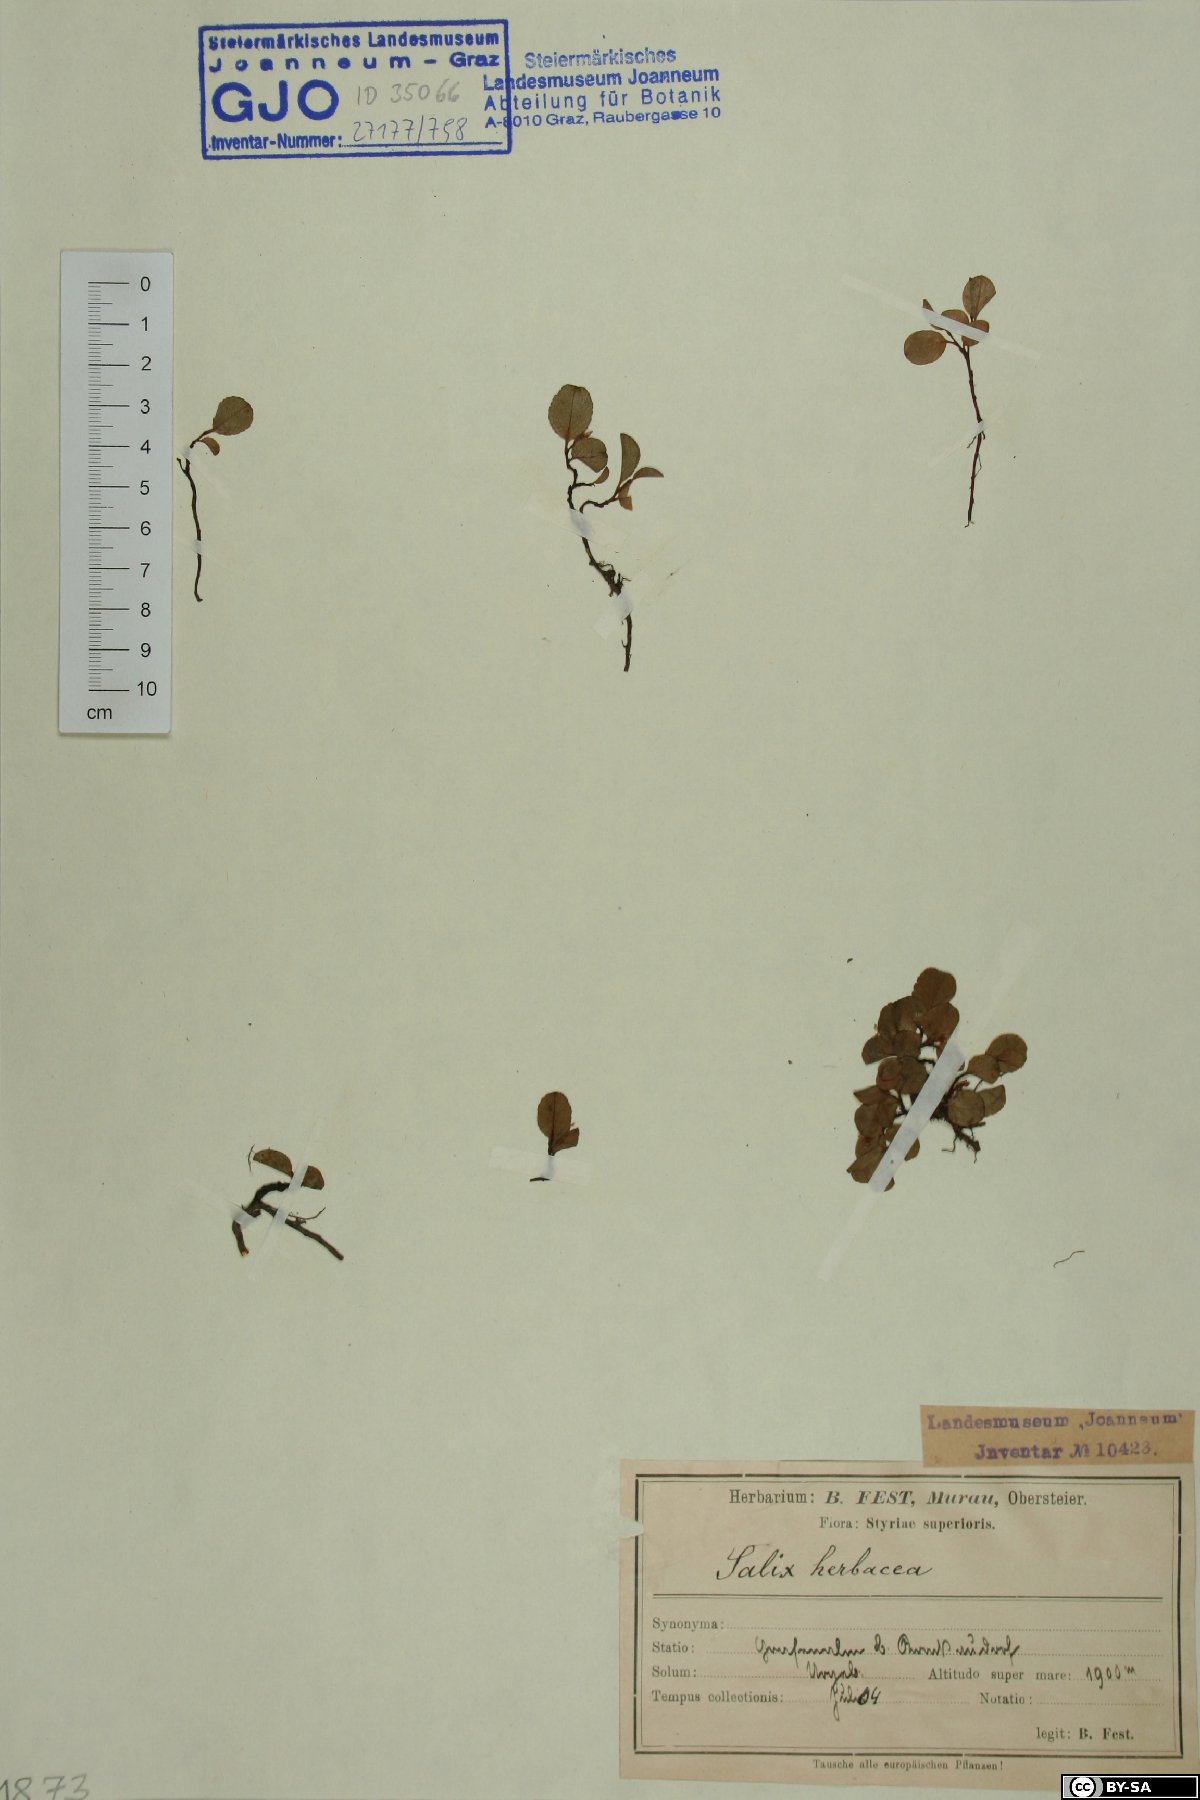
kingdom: Plantae
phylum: Tracheophyta
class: Magnoliopsida
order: Malpighiales
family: Salicaceae
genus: Salix
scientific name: Salix herbacea
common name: Dwarf willow
